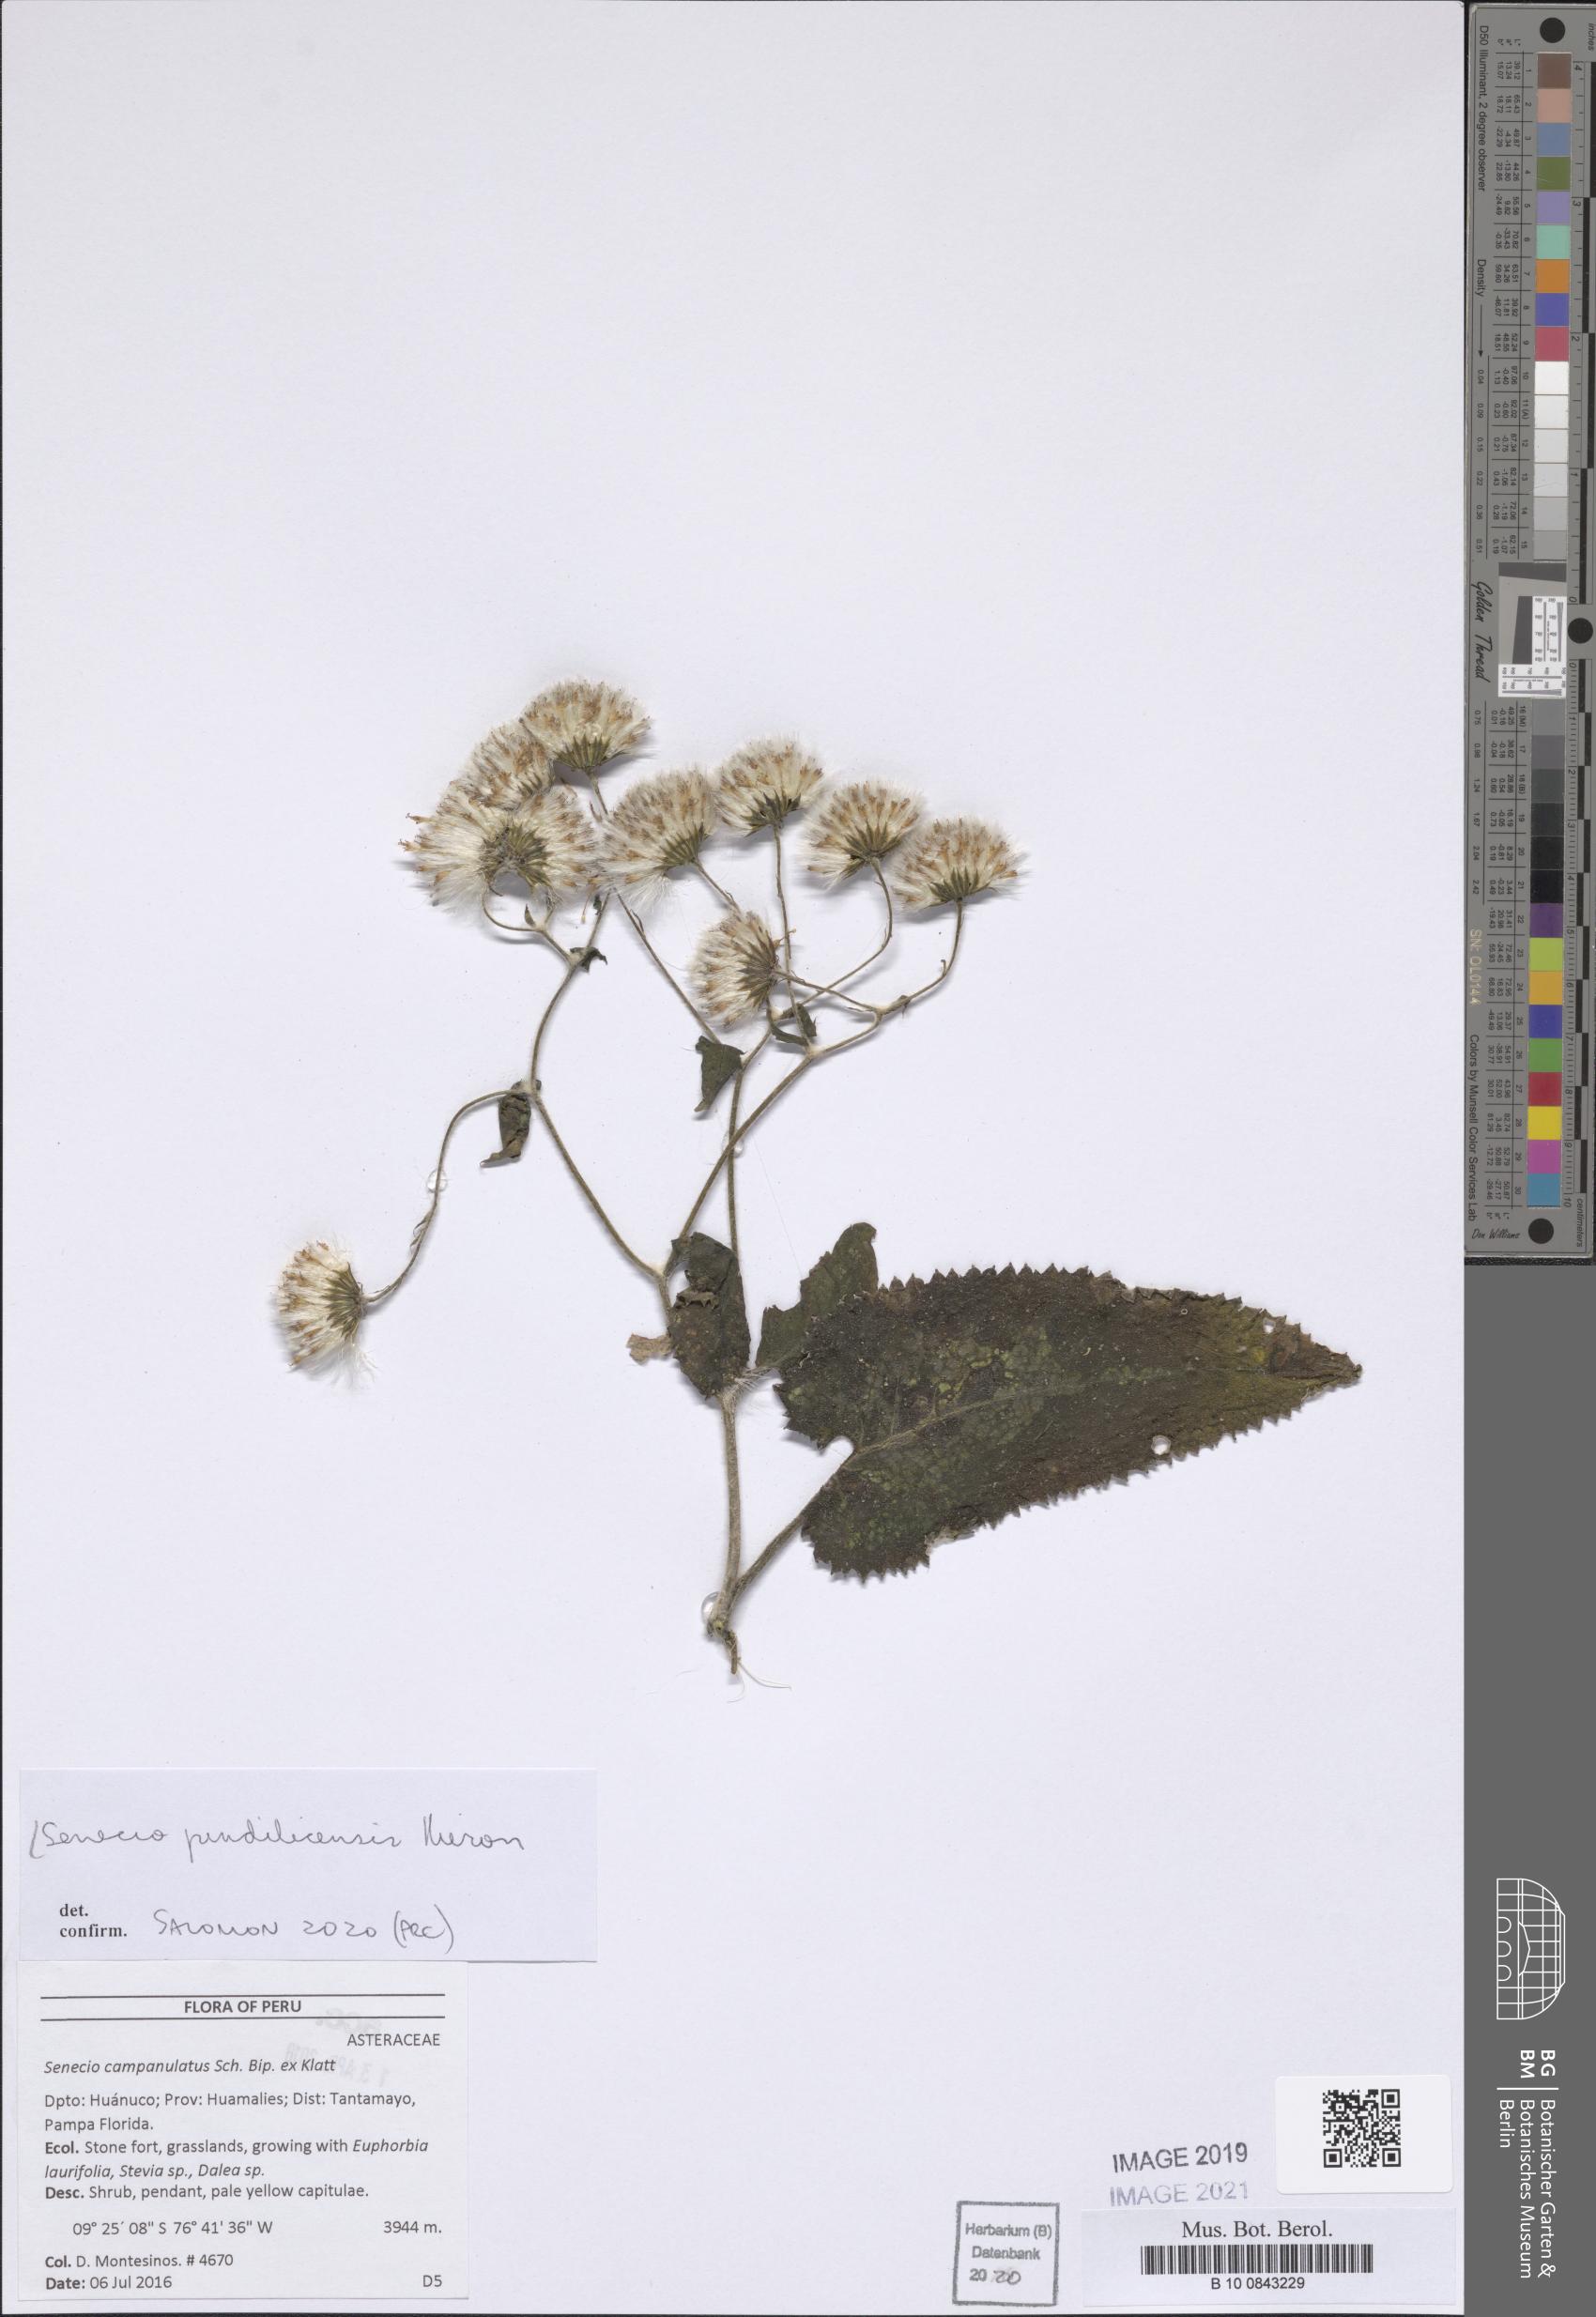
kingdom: Plantae
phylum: Tracheophyta
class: Magnoliopsida
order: Asterales
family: Asteraceae
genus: Aetheolaena
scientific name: Aetheolaena heterophylla
